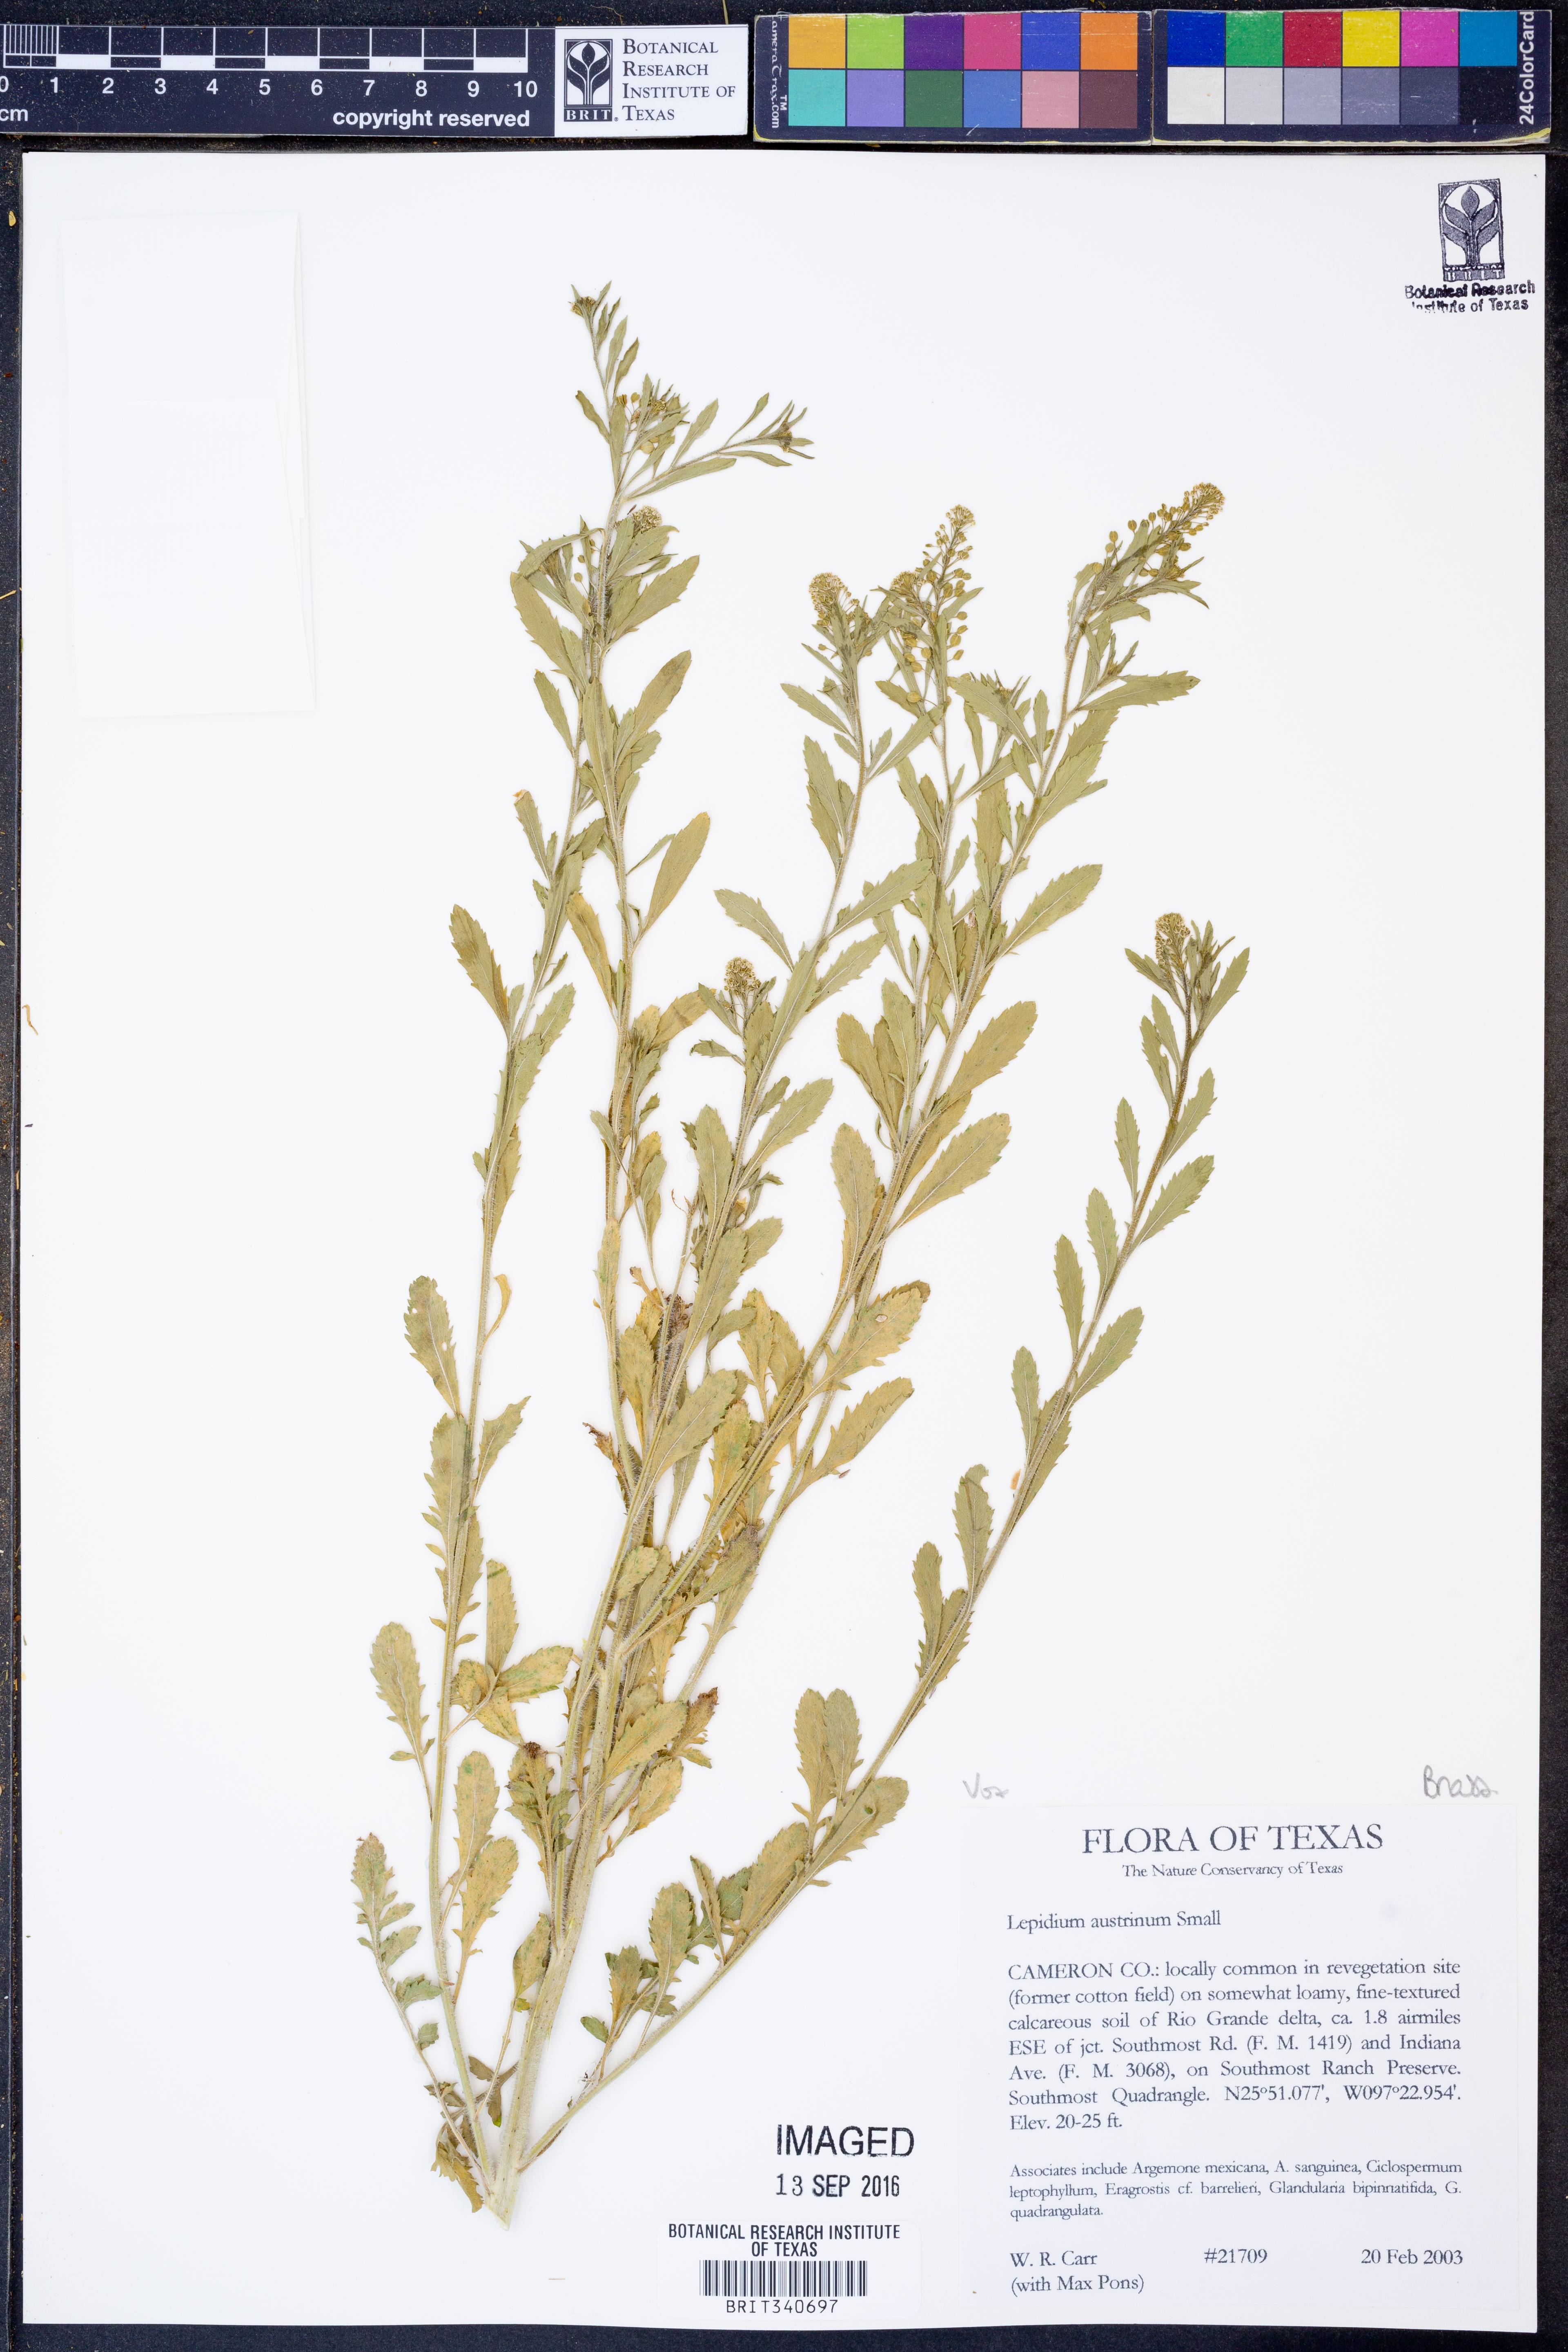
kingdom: Plantae
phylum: Tracheophyta
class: Magnoliopsida
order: Brassicales
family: Brassicaceae
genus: Lepidium
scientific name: Lepidium austrinum
